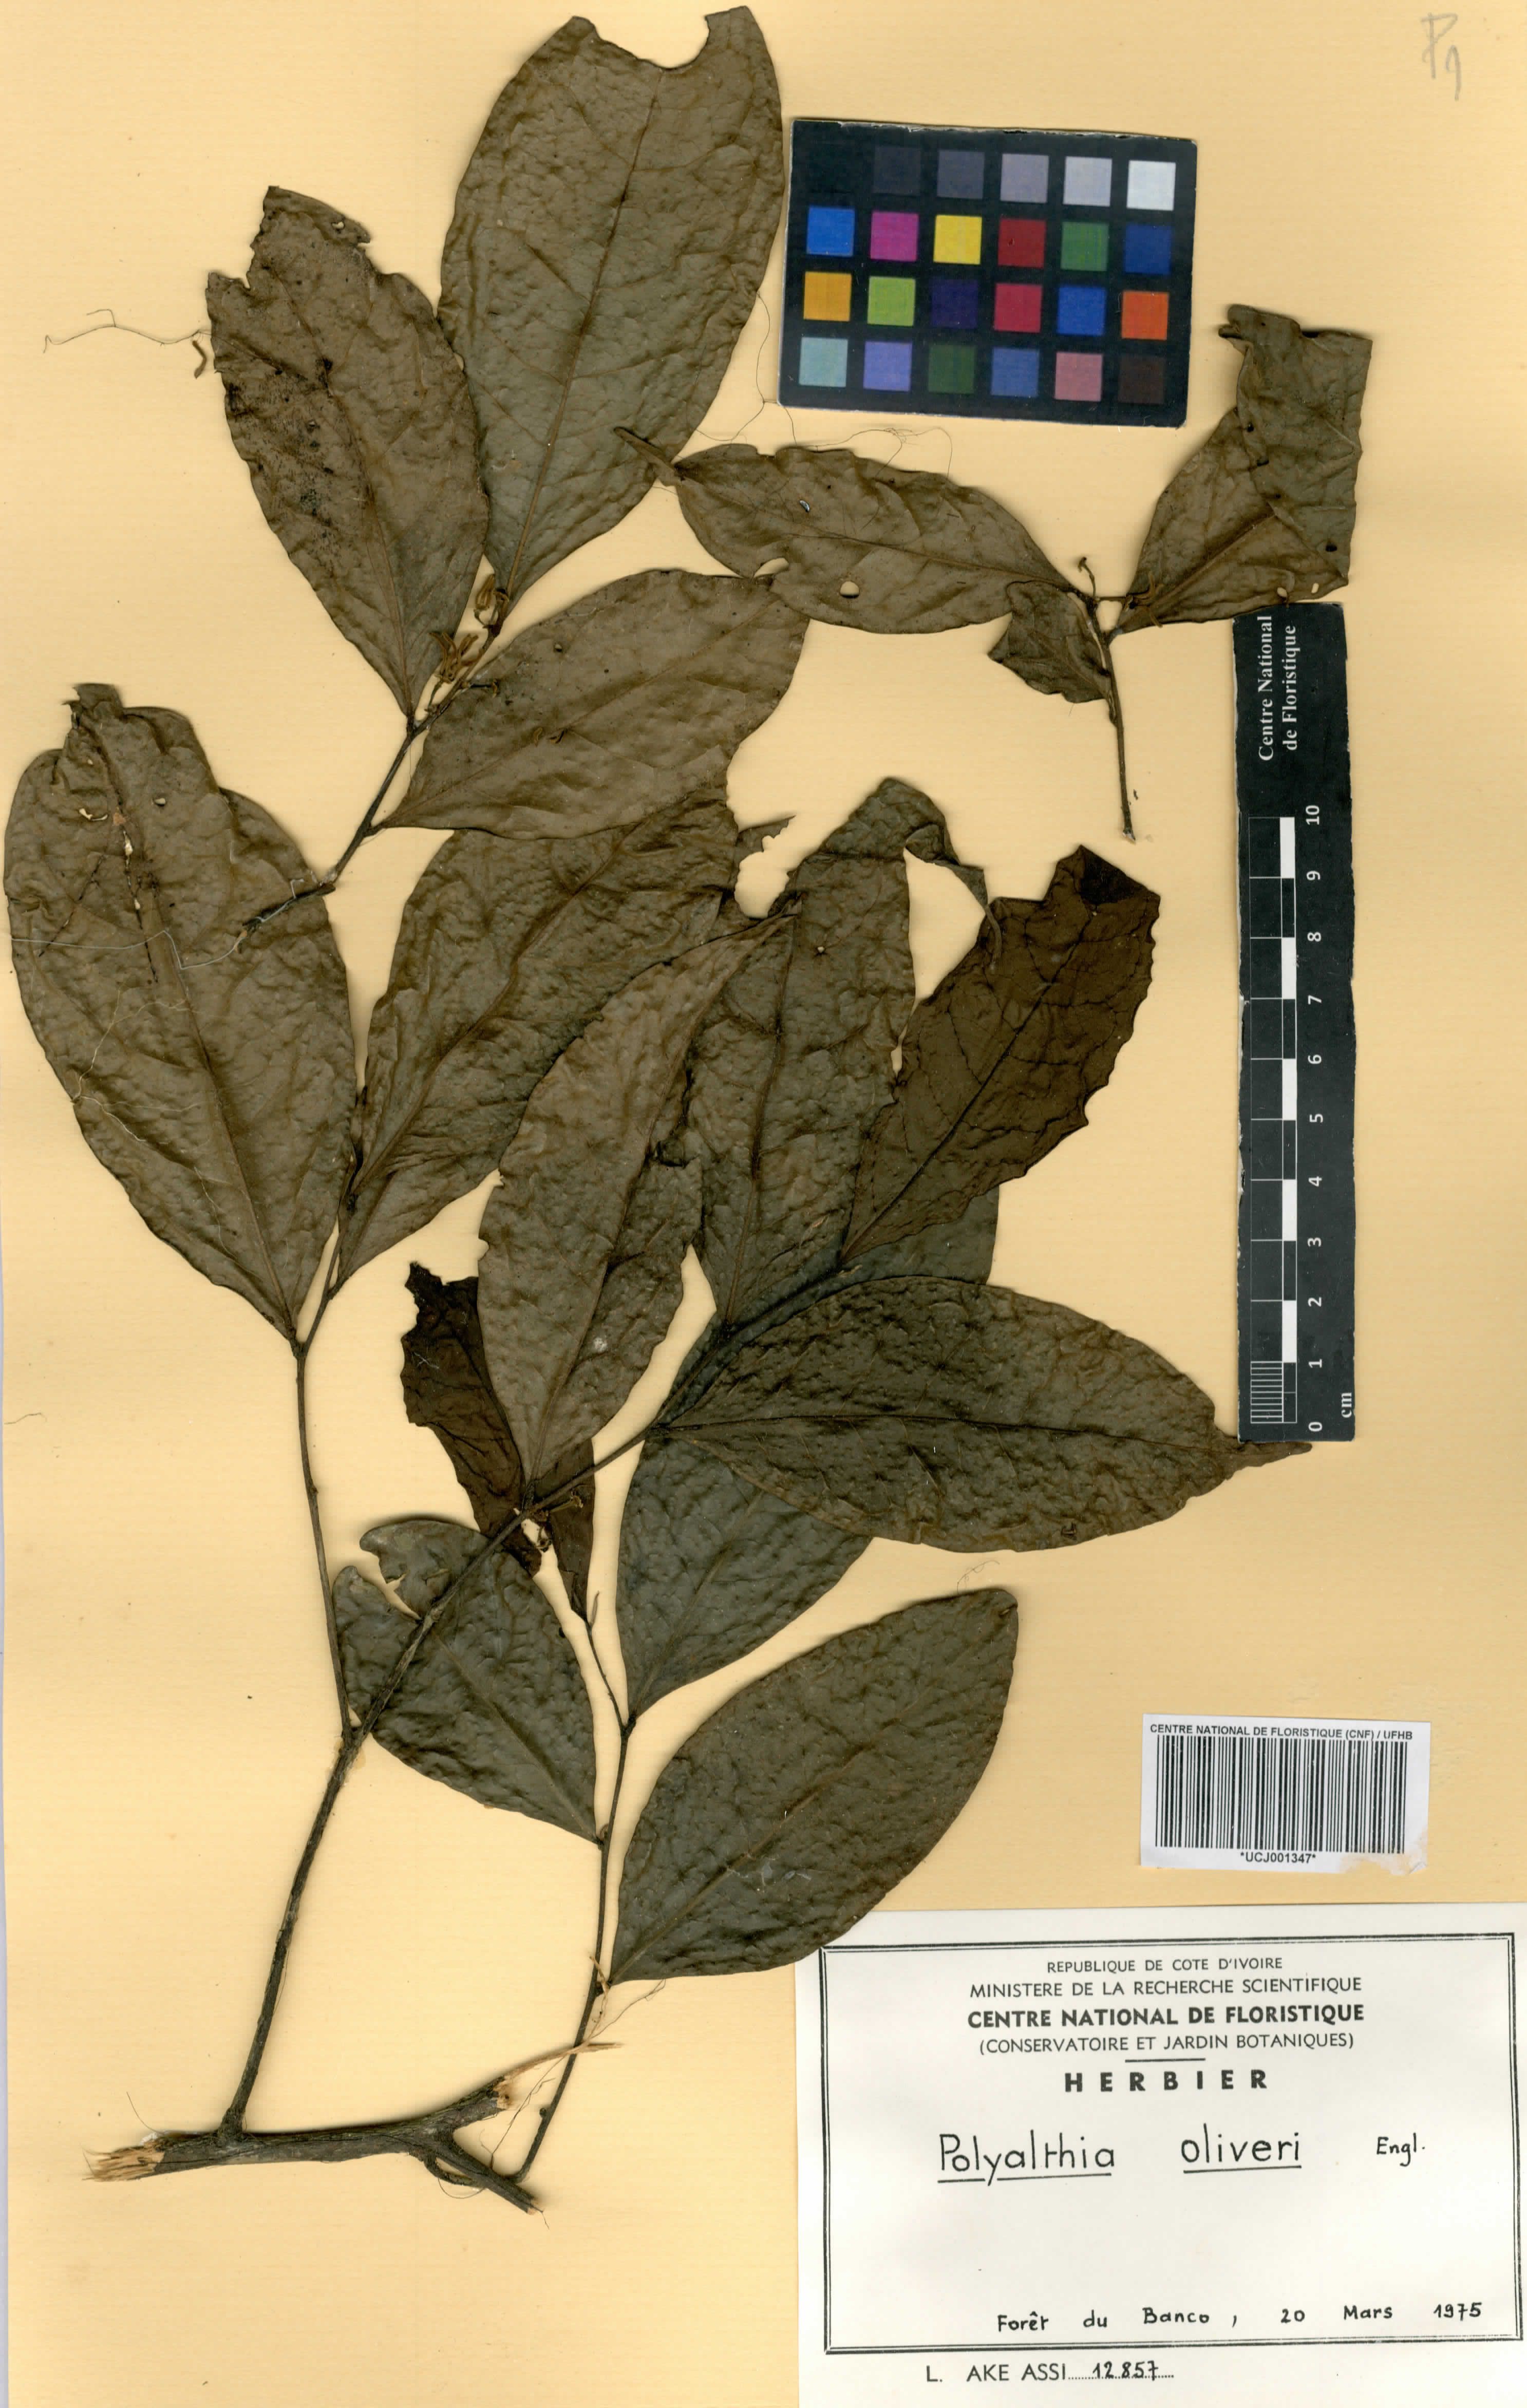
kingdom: Plantae
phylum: Tracheophyta
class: Magnoliopsida
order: Magnoliales
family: Annonaceae
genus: Greenwayodendron
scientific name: Greenwayodendron oliveri
